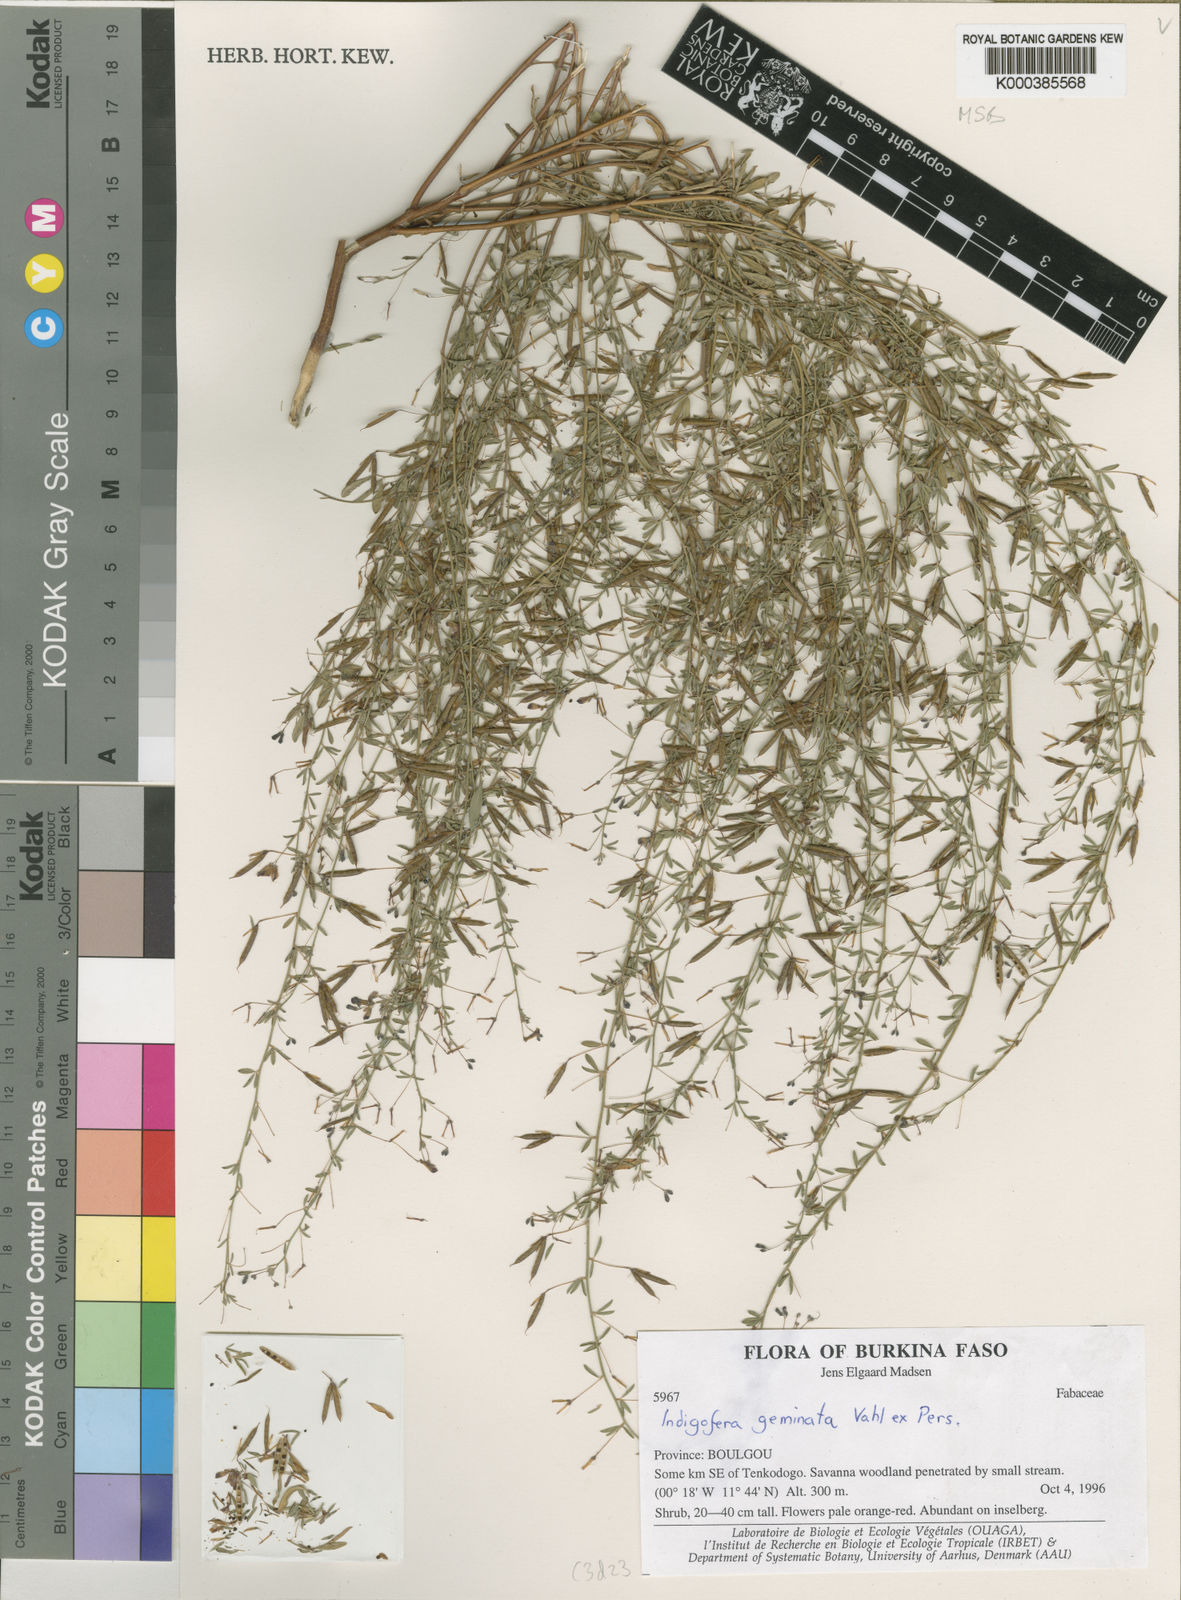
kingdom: Plantae
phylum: Tracheophyta
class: Magnoliopsida
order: Fabales
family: Fabaceae
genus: Indigofera
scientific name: Indigofera geminata
